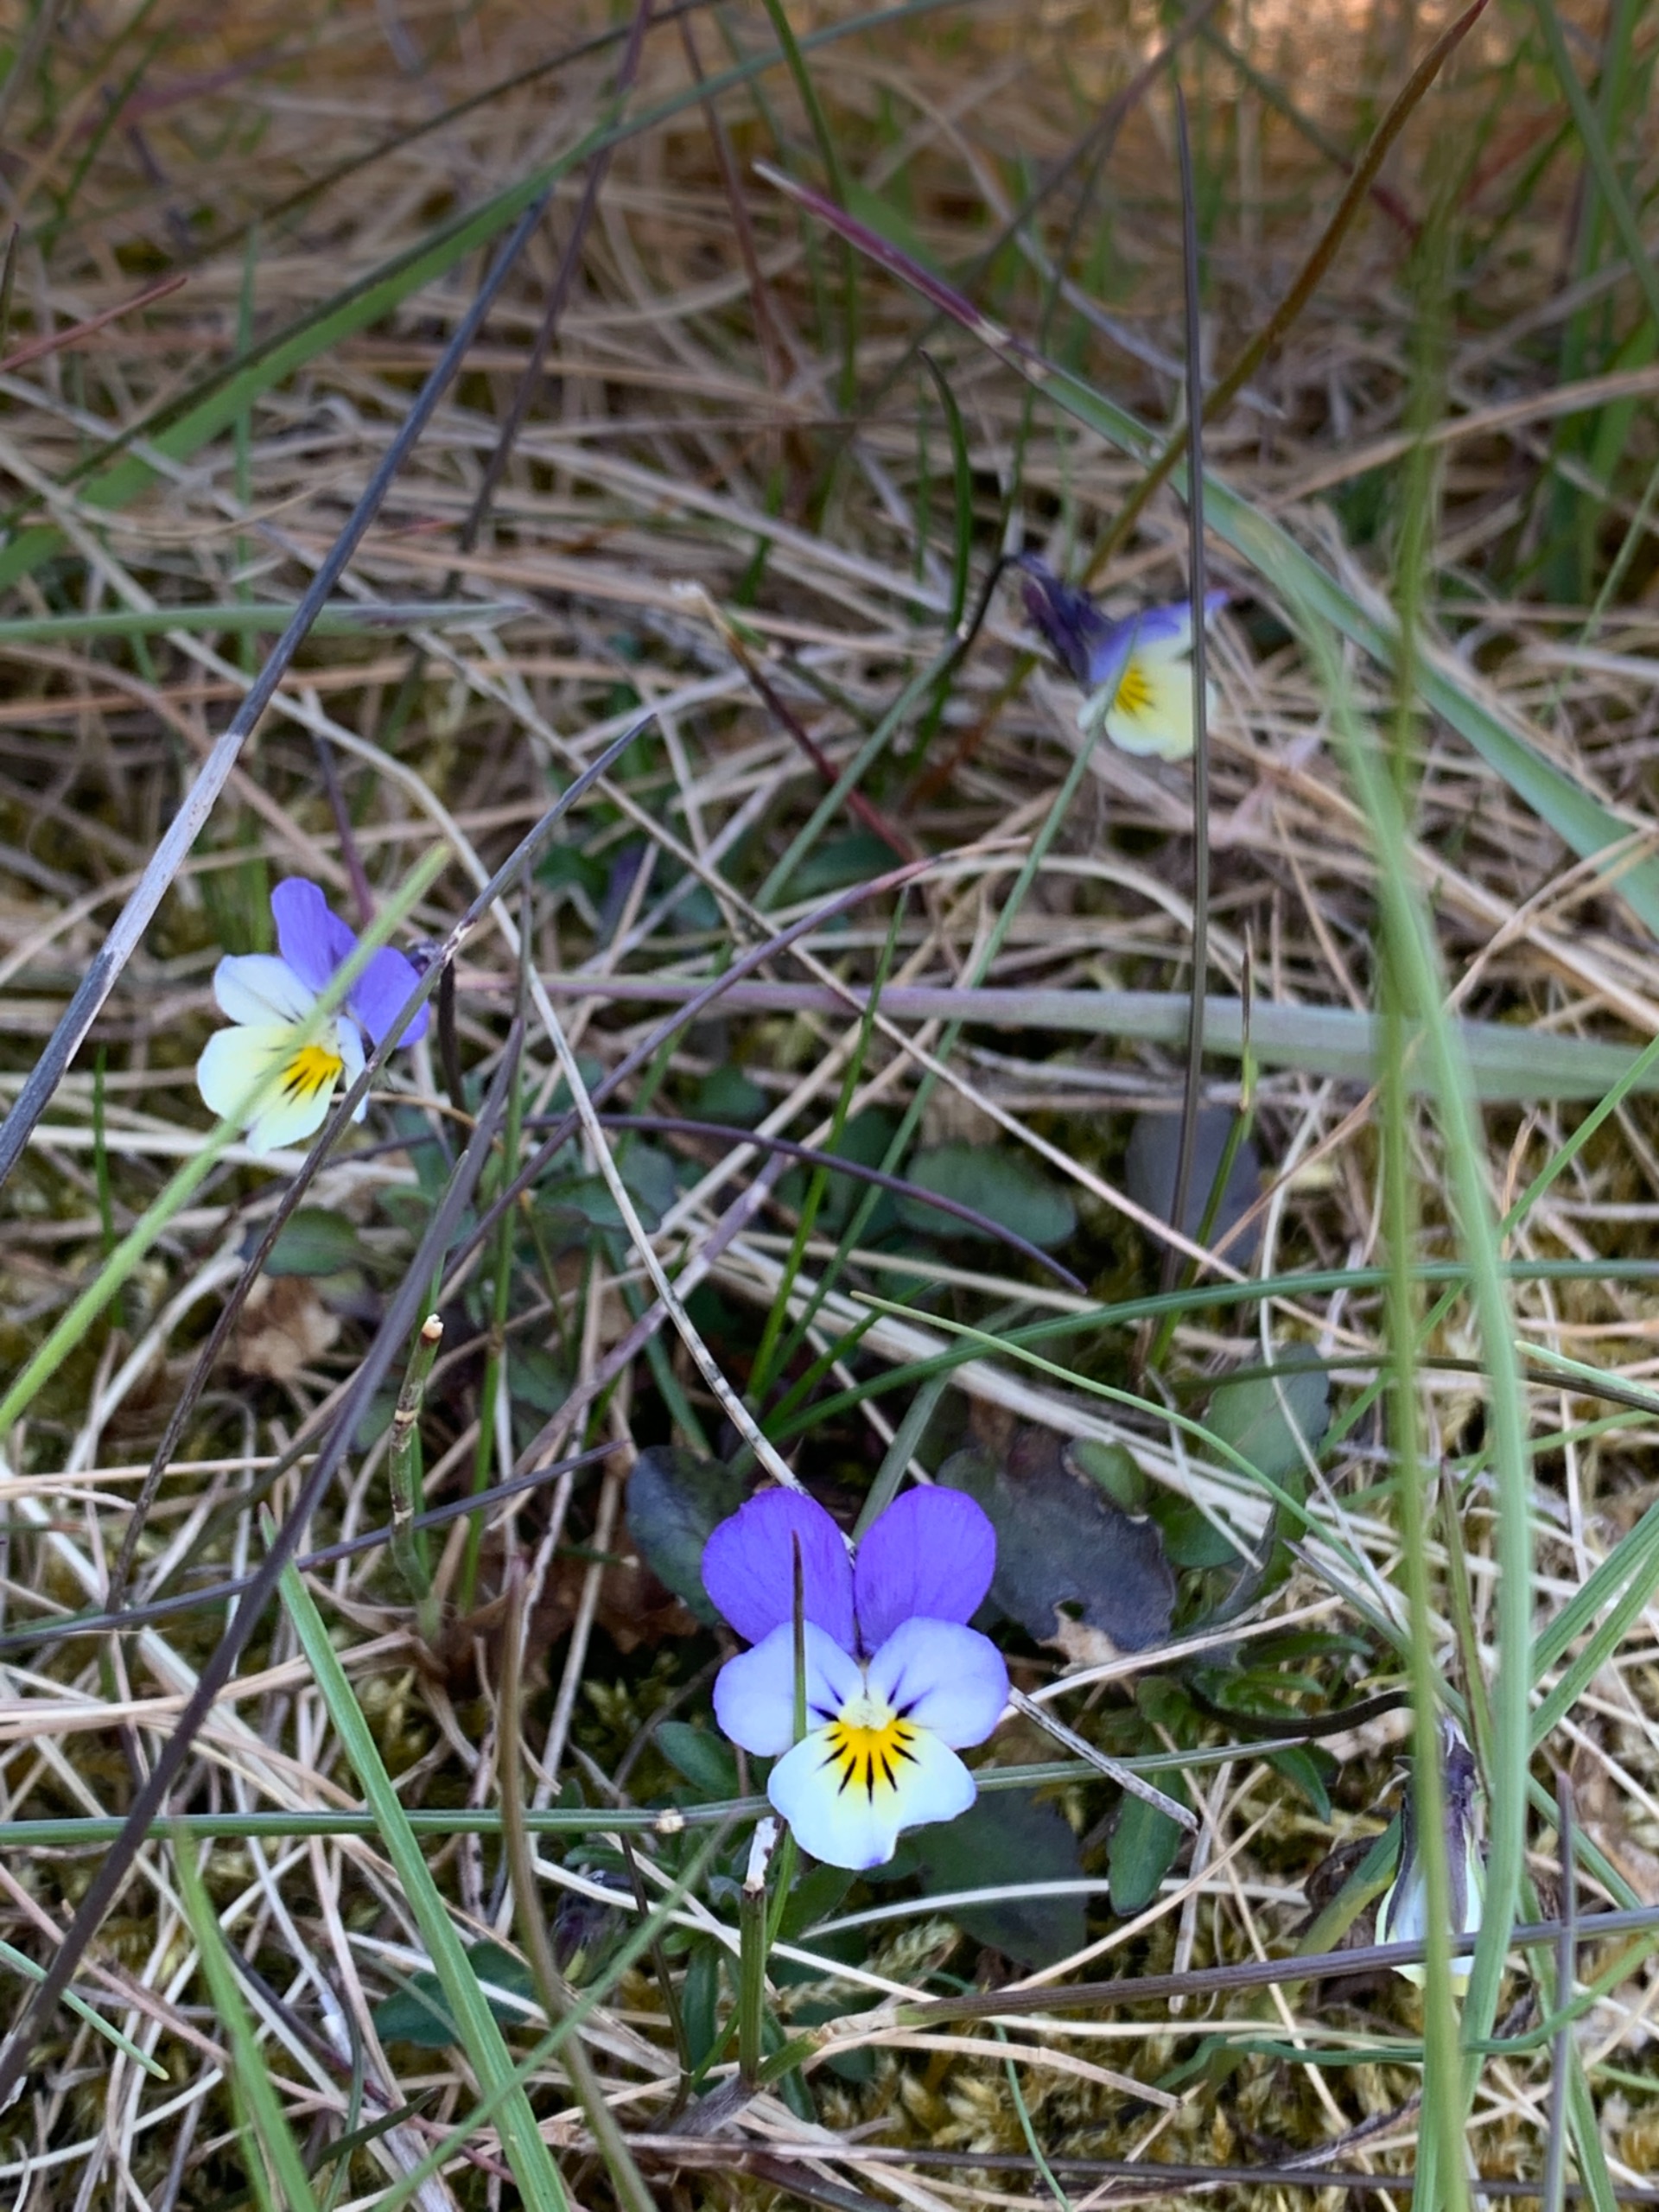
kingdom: Plantae
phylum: Tracheophyta
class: Magnoliopsida
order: Malpighiales
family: Violaceae
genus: Viola
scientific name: Viola tricolor
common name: Stedmoderblomst
